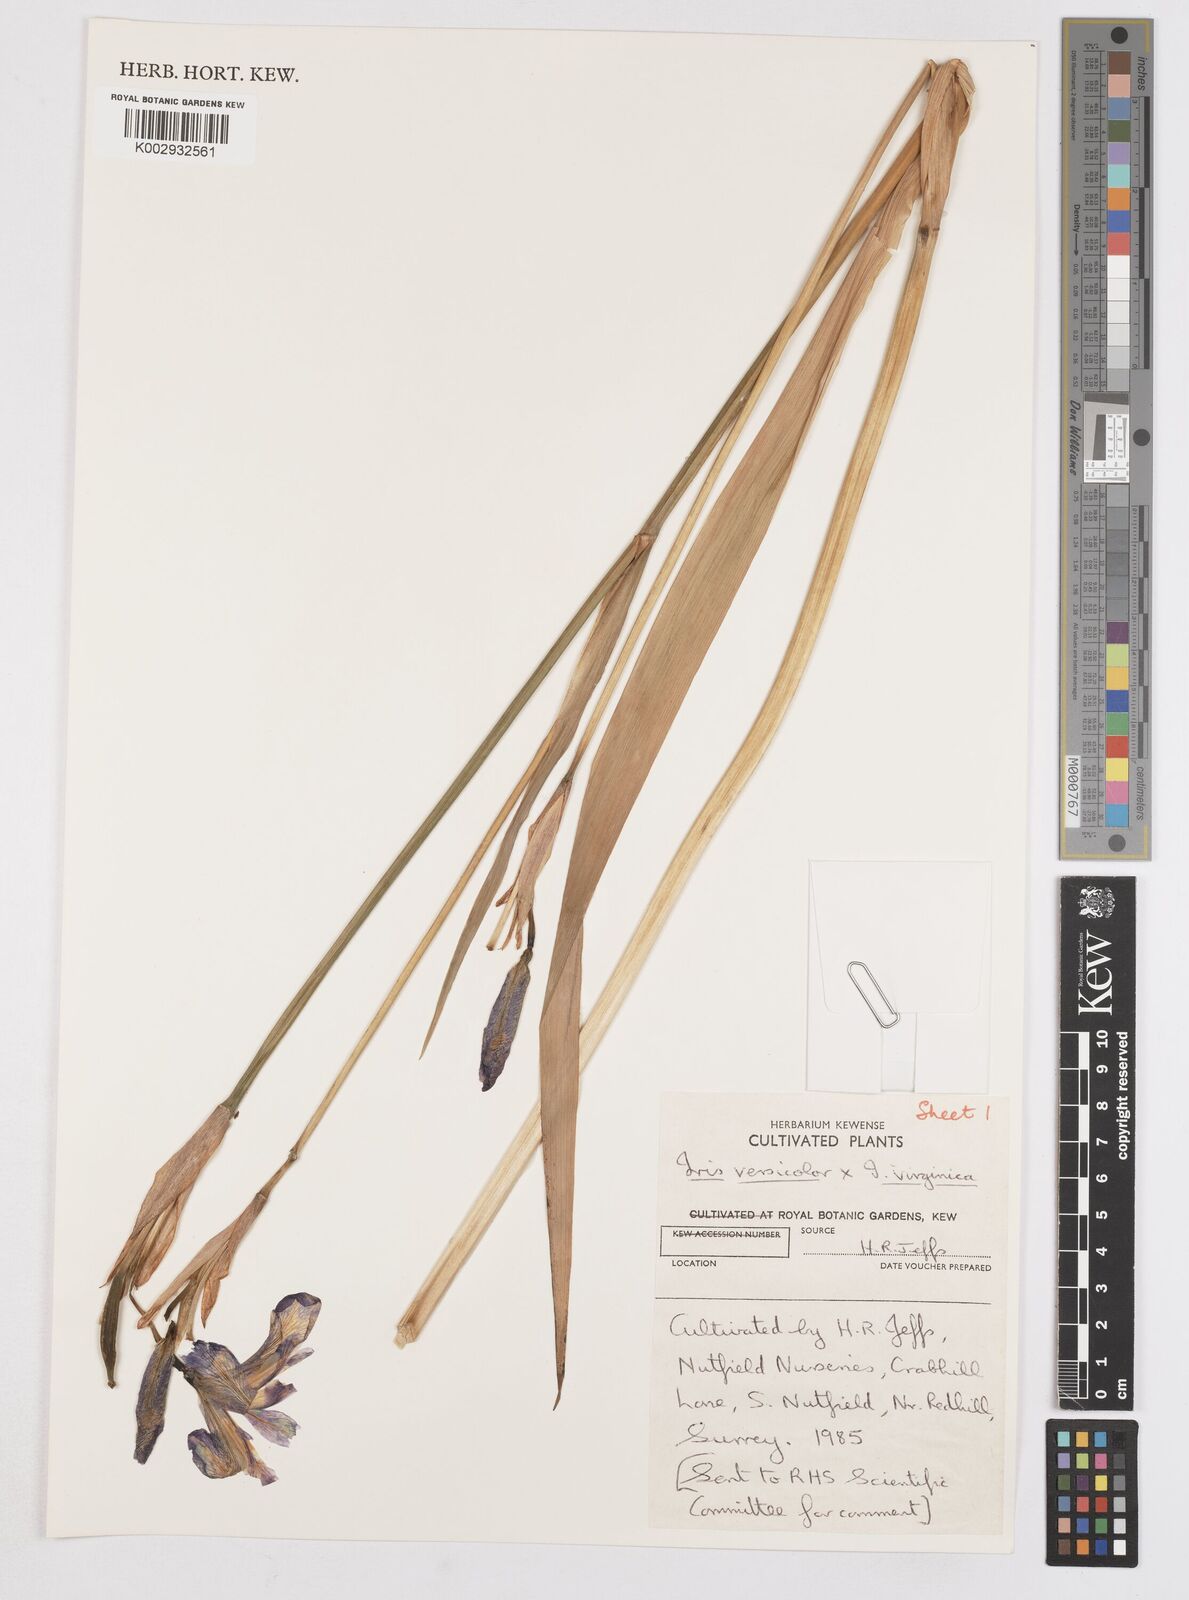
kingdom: Plantae
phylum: Tracheophyta
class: Liliopsida
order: Asparagales
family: Iridaceae
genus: Iris
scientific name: Iris versicolor
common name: Purple iris
